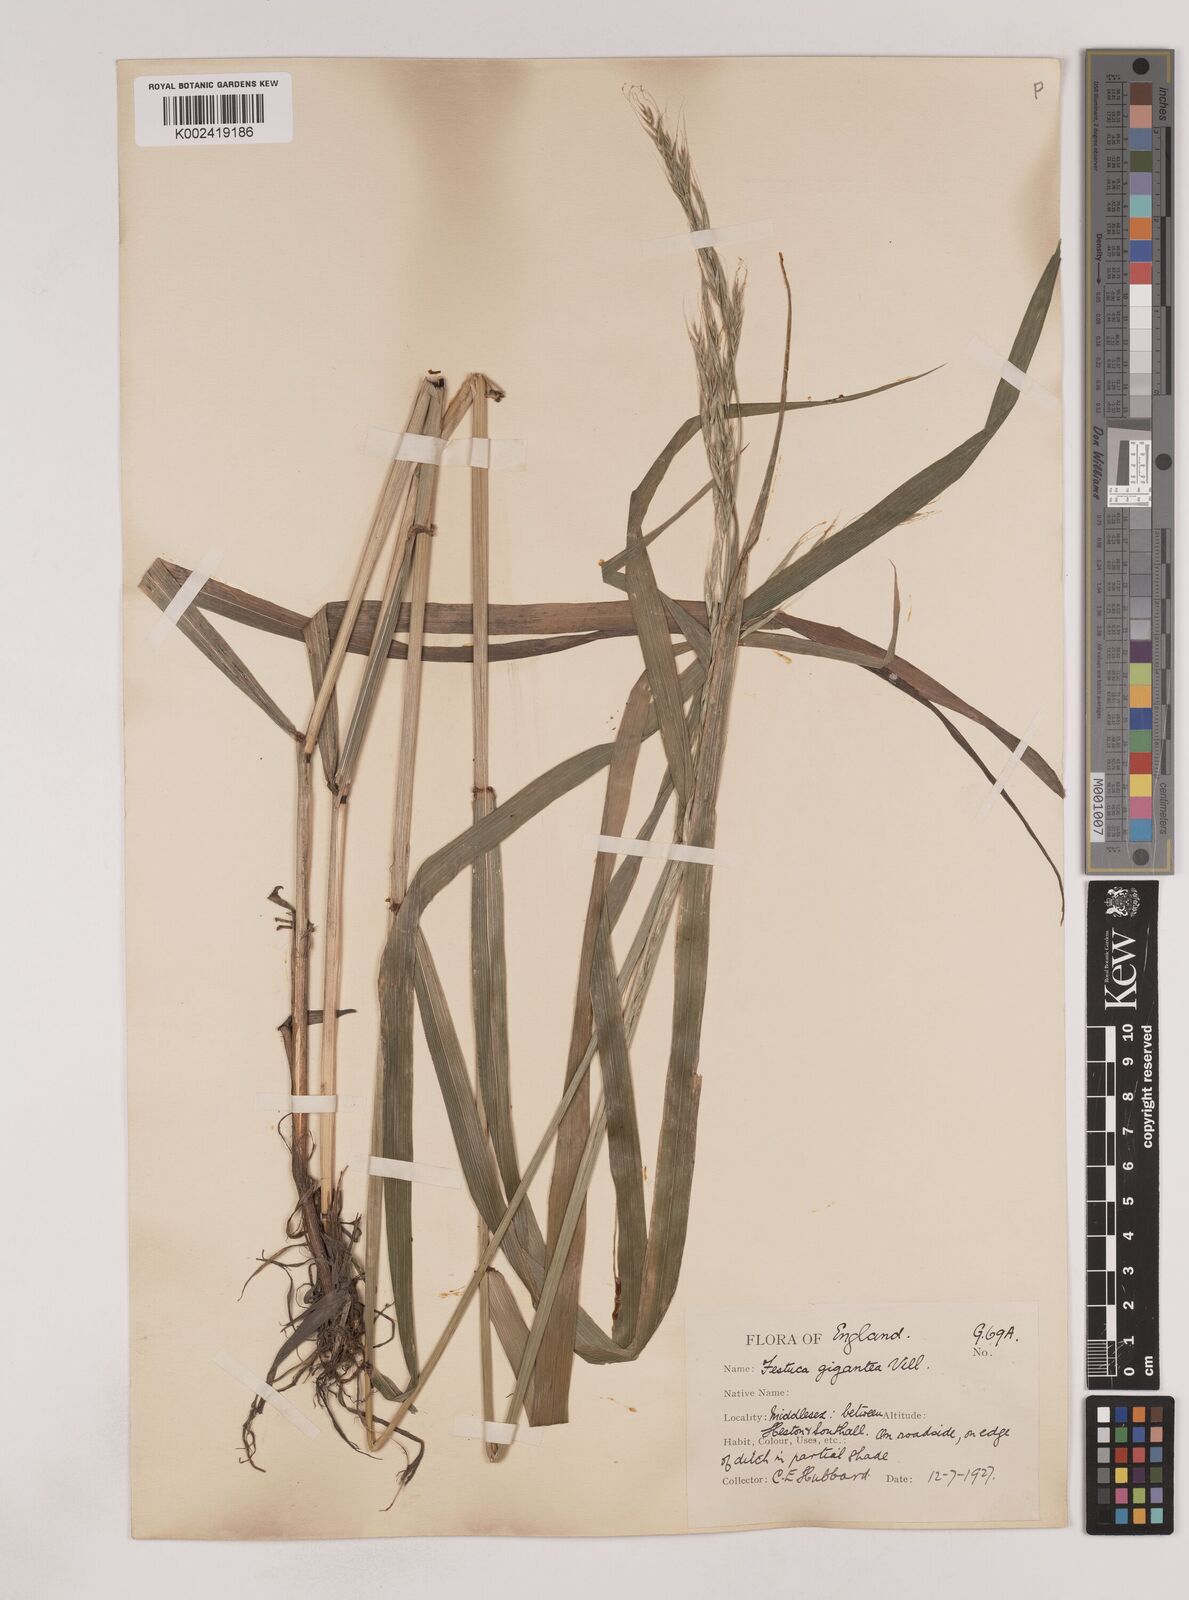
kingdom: Plantae
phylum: Tracheophyta
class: Liliopsida
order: Poales
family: Poaceae
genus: Lolium
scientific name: Lolium giganteum
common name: Giant fescue
